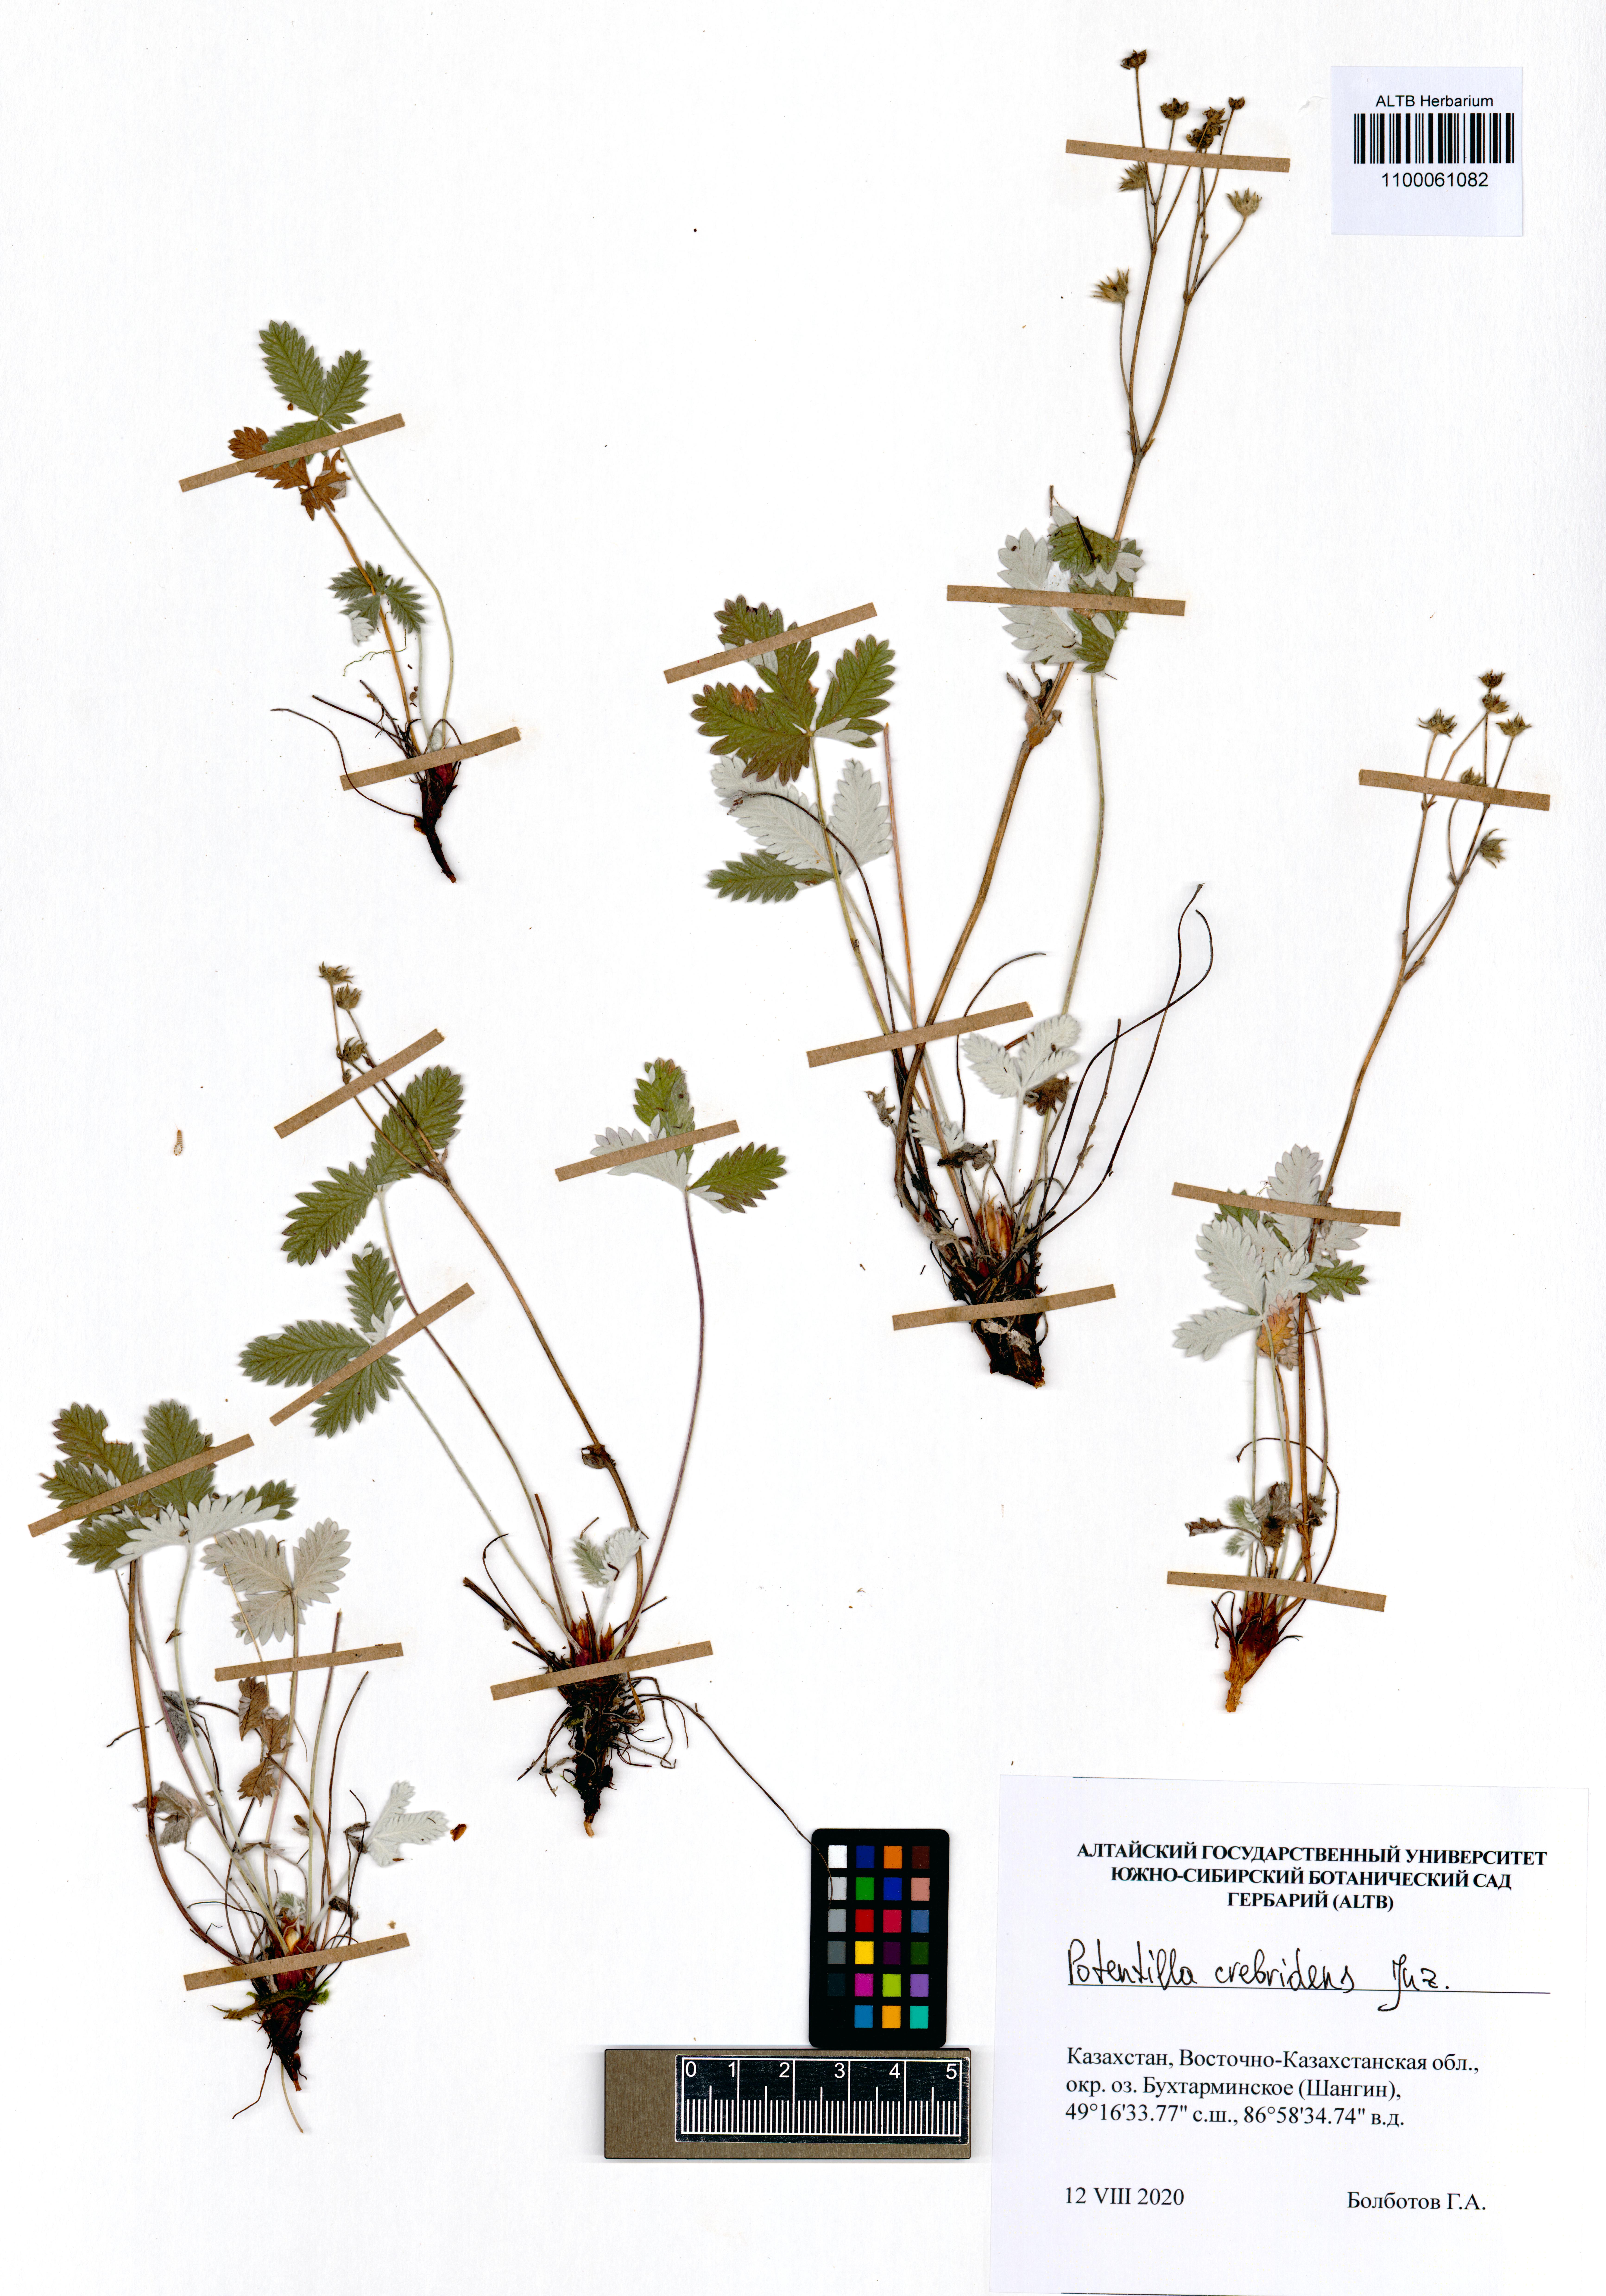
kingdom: Plantae
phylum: Tracheophyta
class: Magnoliopsida
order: Rosales
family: Rosaceae
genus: Potentilla
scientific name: Potentilla crebridens
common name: Congested cinquefoil
